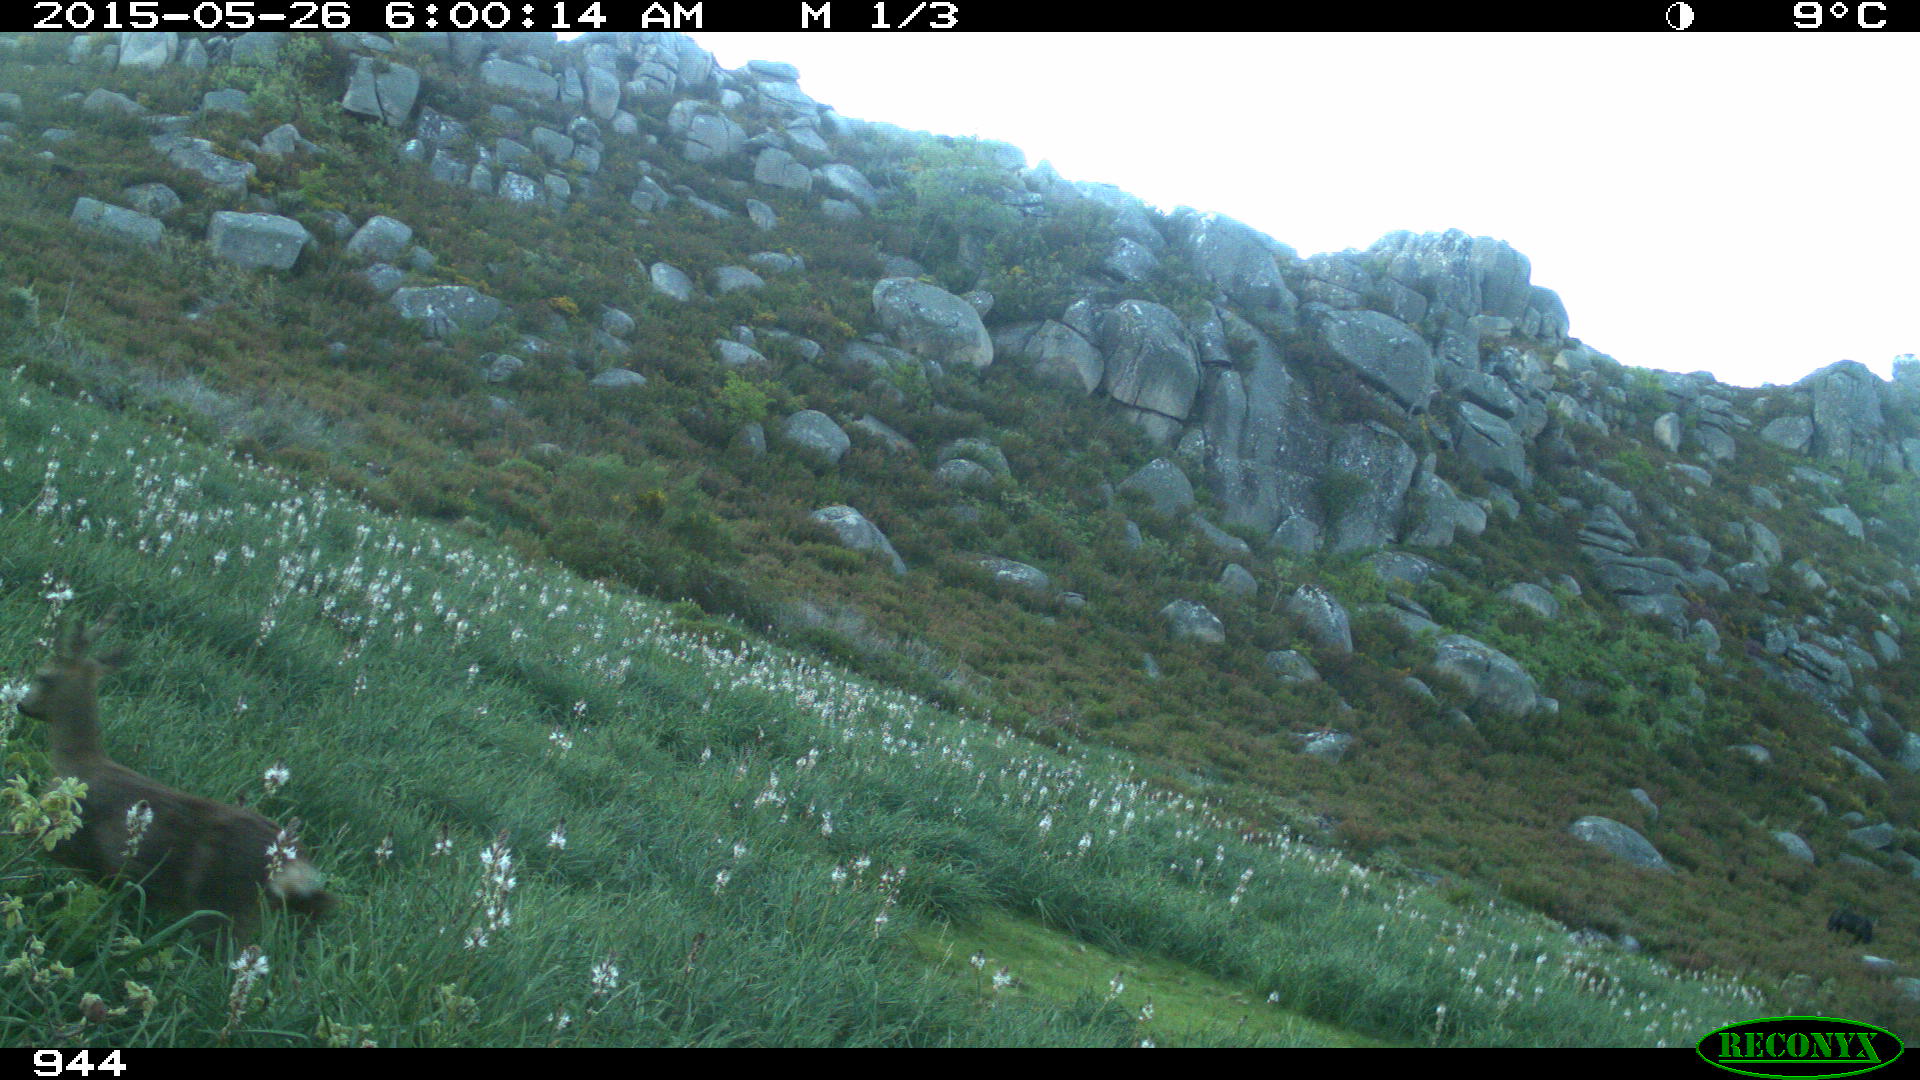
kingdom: Animalia
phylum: Chordata
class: Mammalia
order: Artiodactyla
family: Cervidae
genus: Capreolus
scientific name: Capreolus capreolus
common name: Western roe deer
